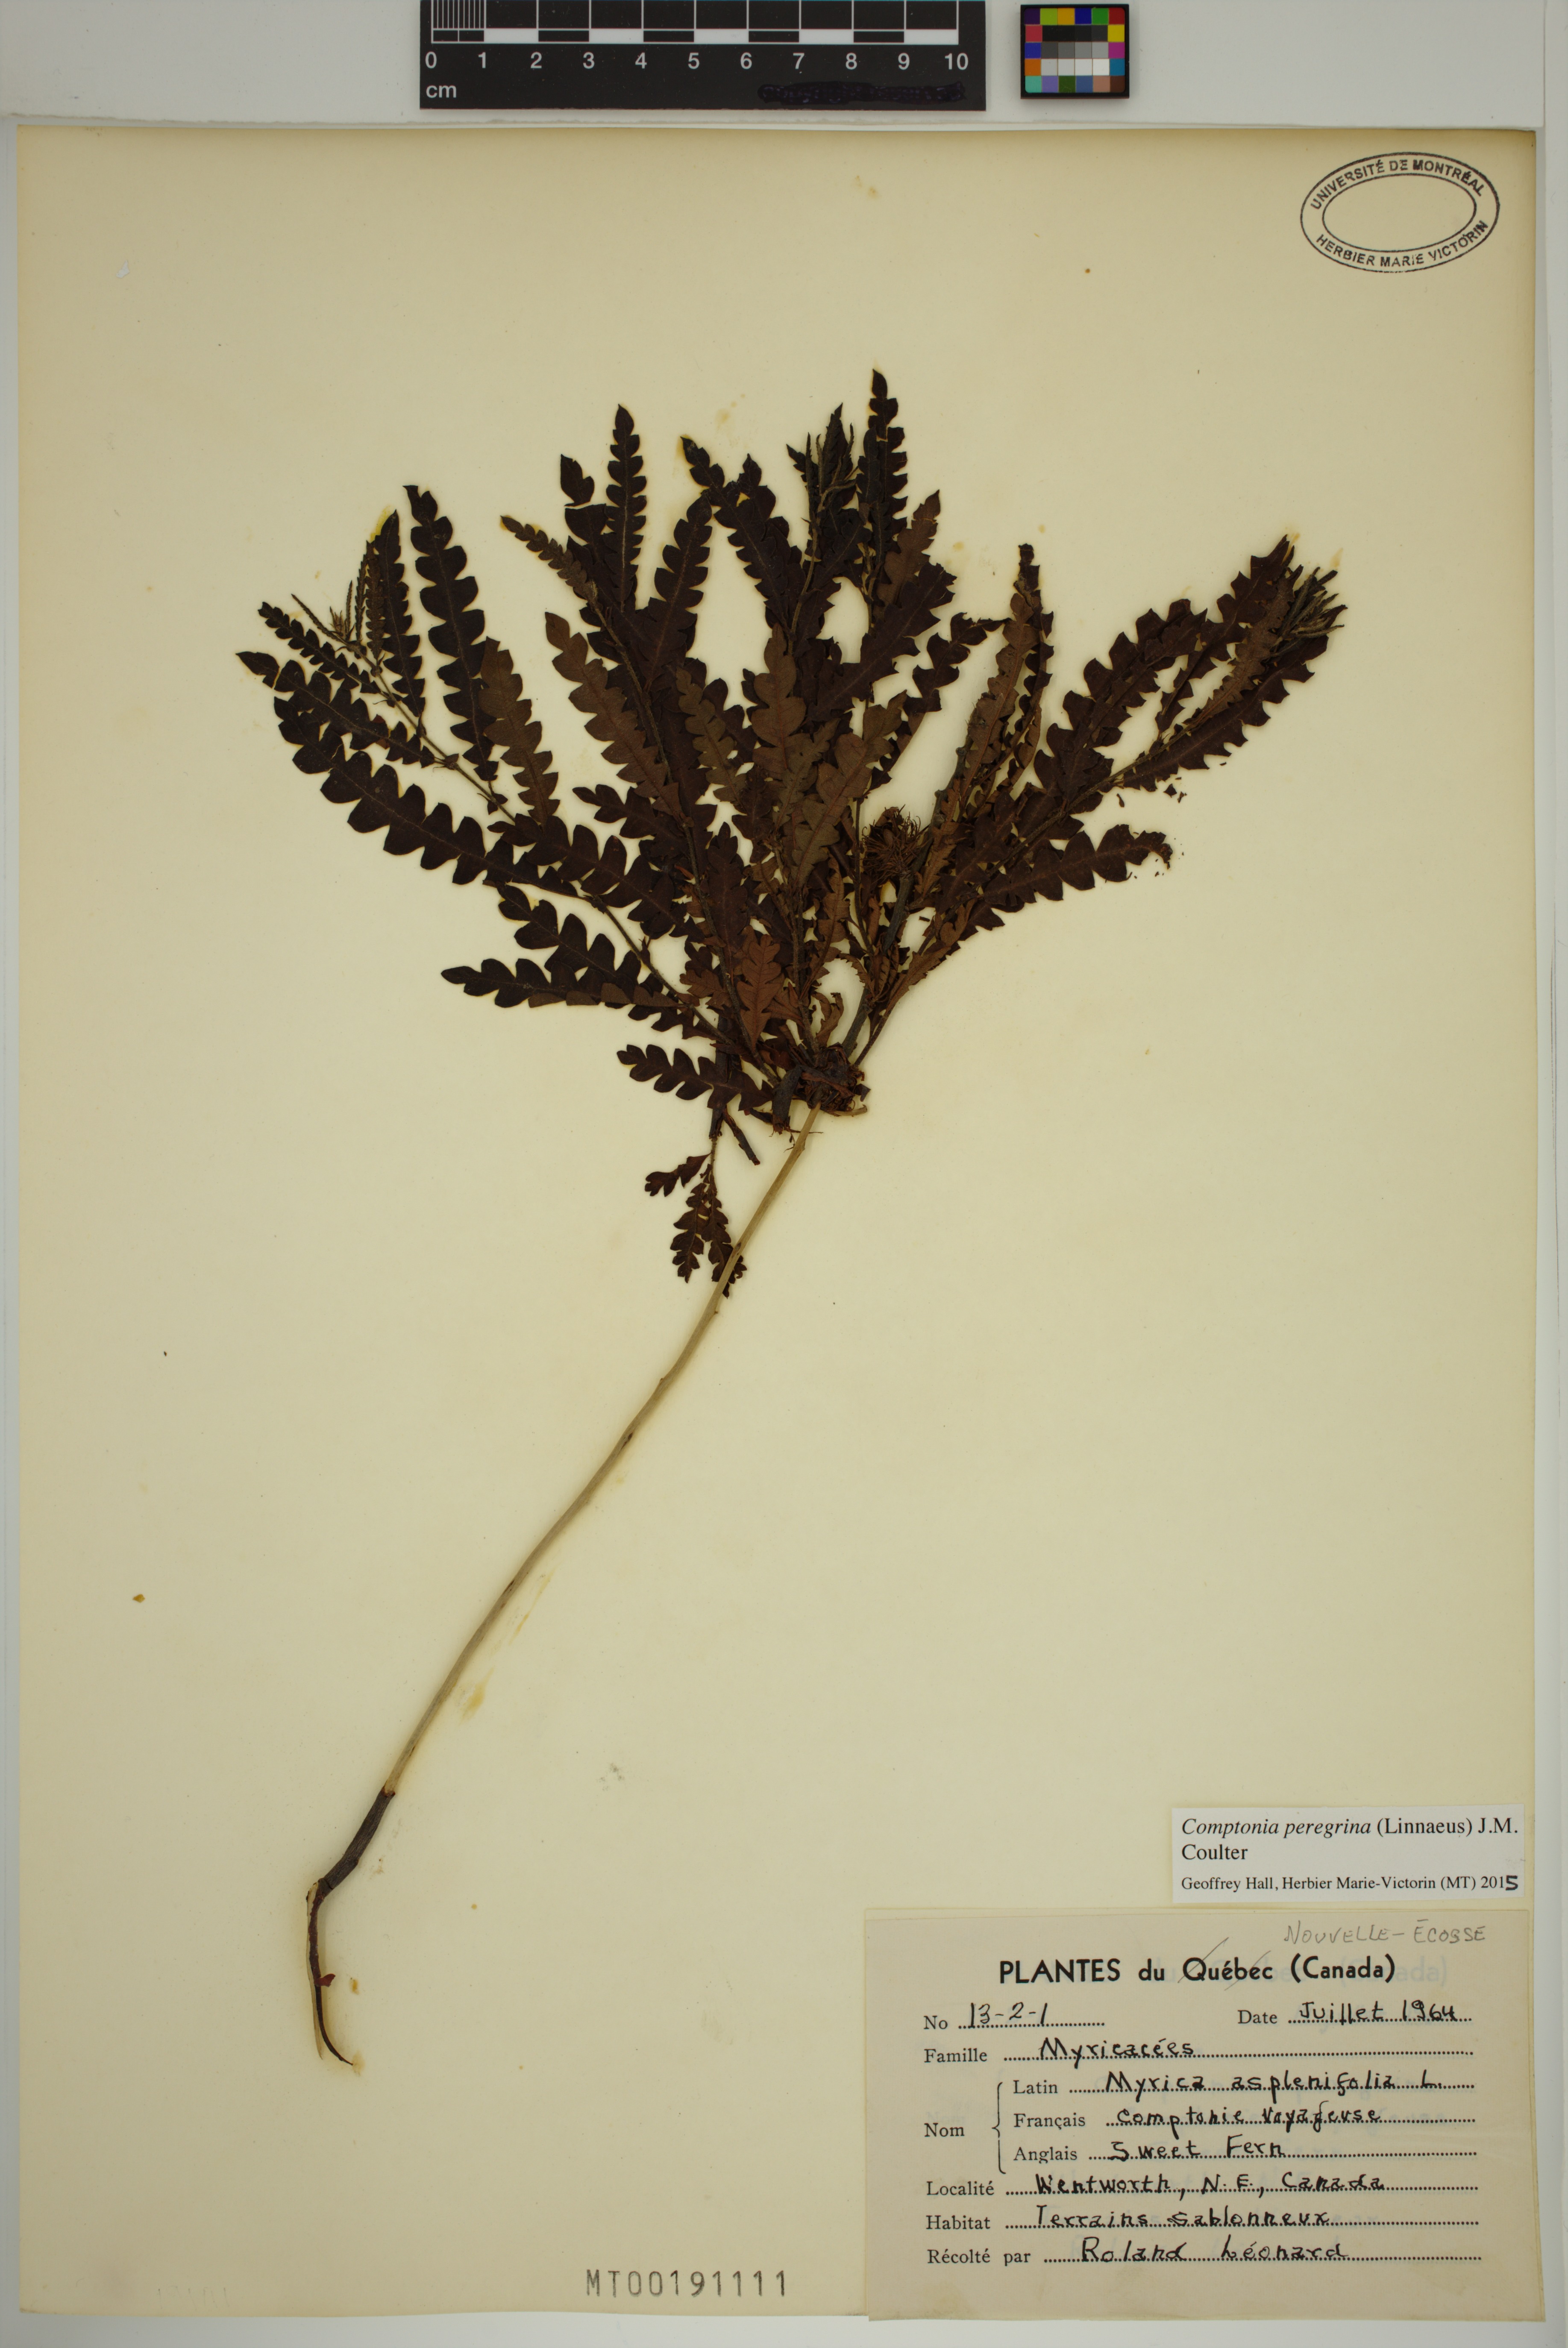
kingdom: Plantae
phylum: Tracheophyta
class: Magnoliopsida
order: Fagales
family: Myricaceae
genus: Comptonia
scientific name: Comptonia peregrina
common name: Sweet-fern
